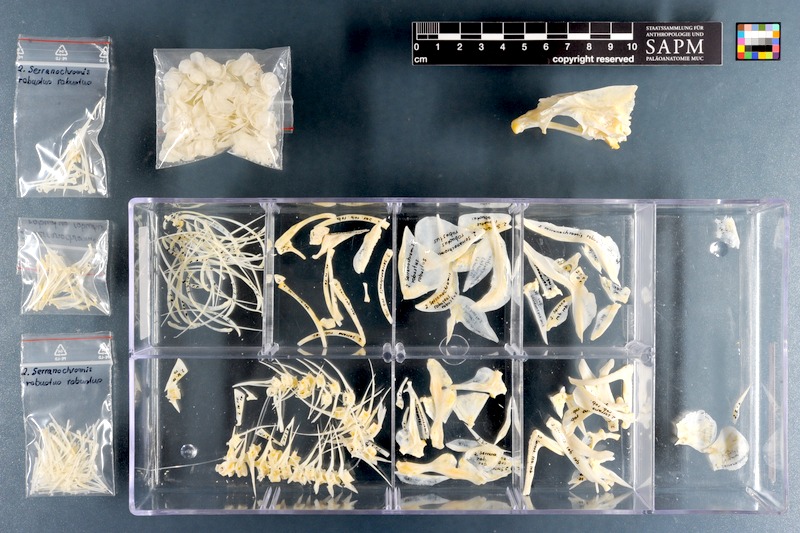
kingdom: Animalia
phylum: Chordata
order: Perciformes
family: Cichlidae
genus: Serranochromis
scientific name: Serranochromis robustus
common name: Yellow-belly bream
